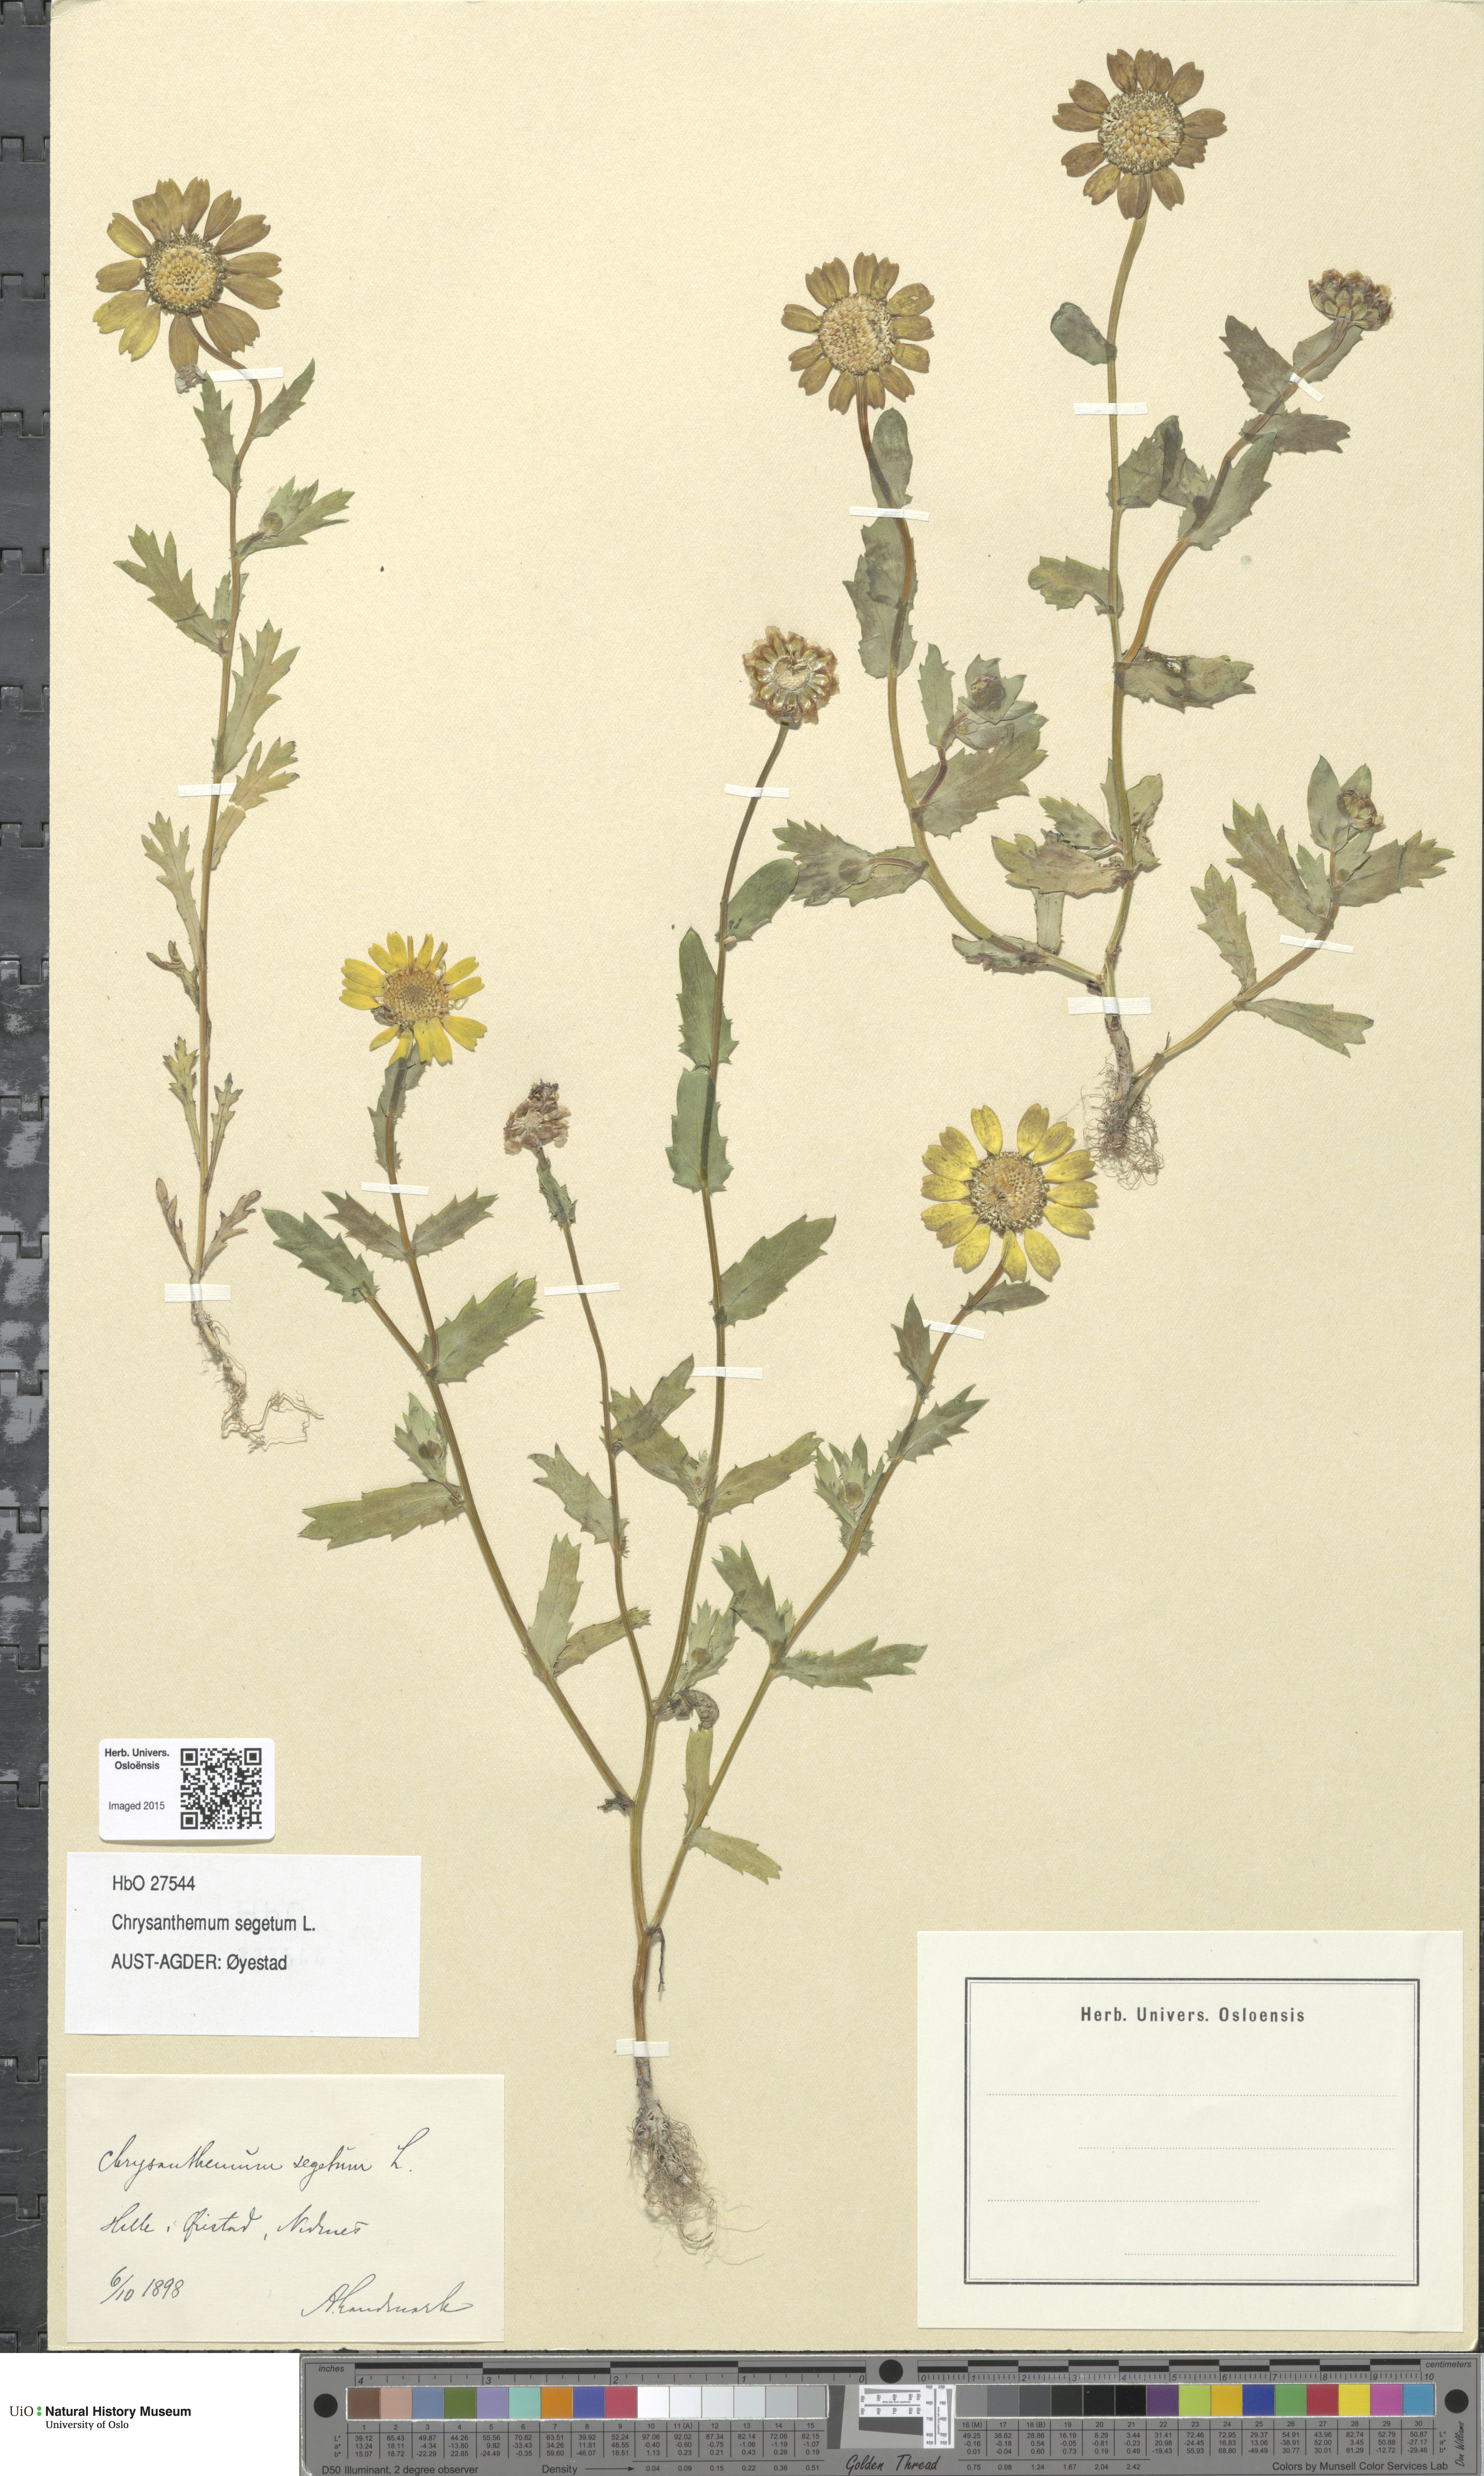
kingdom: Plantae
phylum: Tracheophyta
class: Magnoliopsida
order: Asterales
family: Asteraceae
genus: Glebionis
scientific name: Glebionis segetum
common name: Corndaisy
